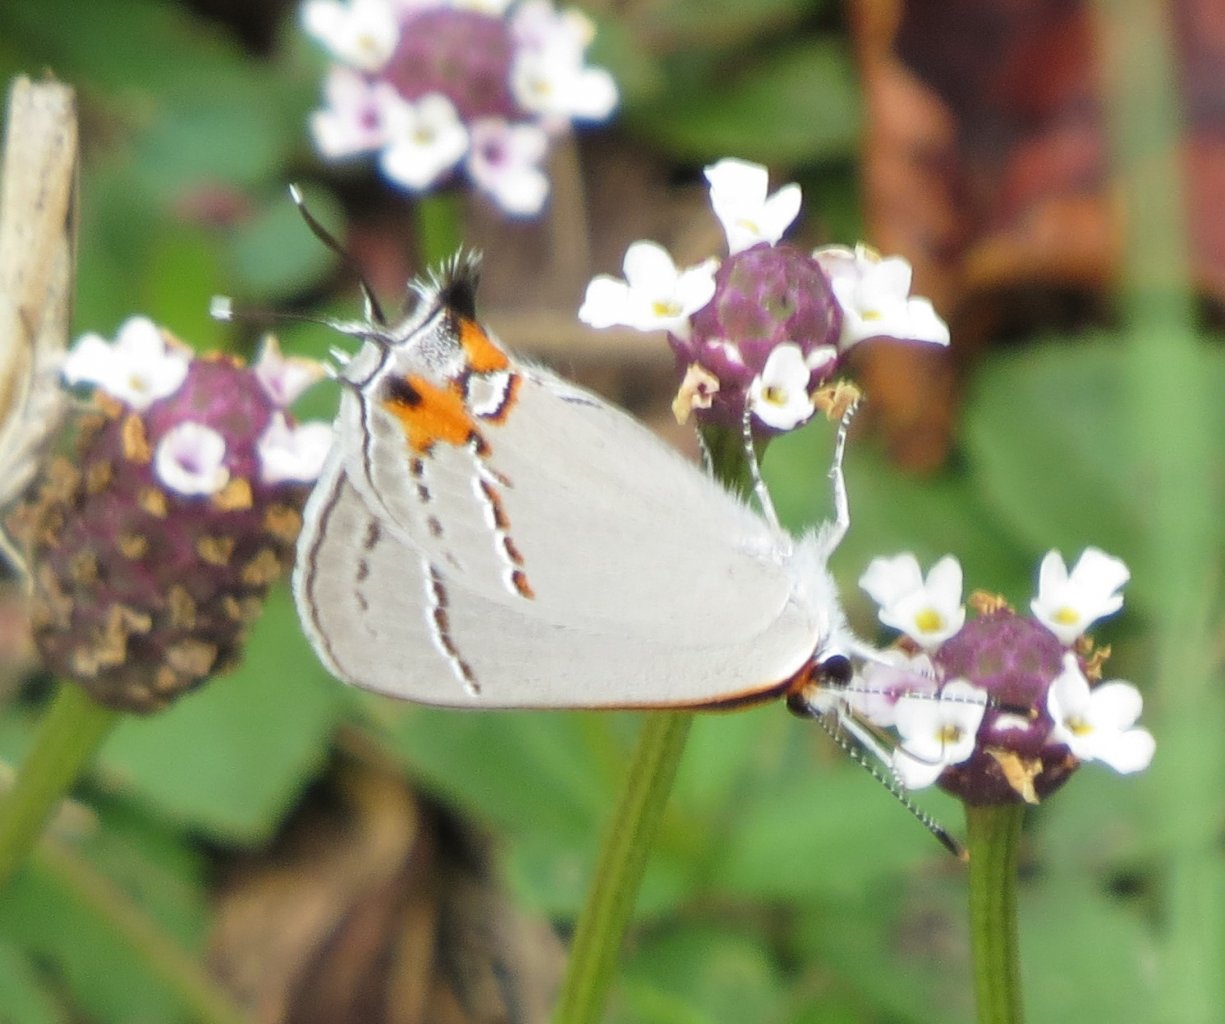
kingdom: Animalia
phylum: Arthropoda
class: Insecta
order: Lepidoptera
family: Lycaenidae
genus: Strymon
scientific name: Strymon melinus
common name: Gray Hairstreak
